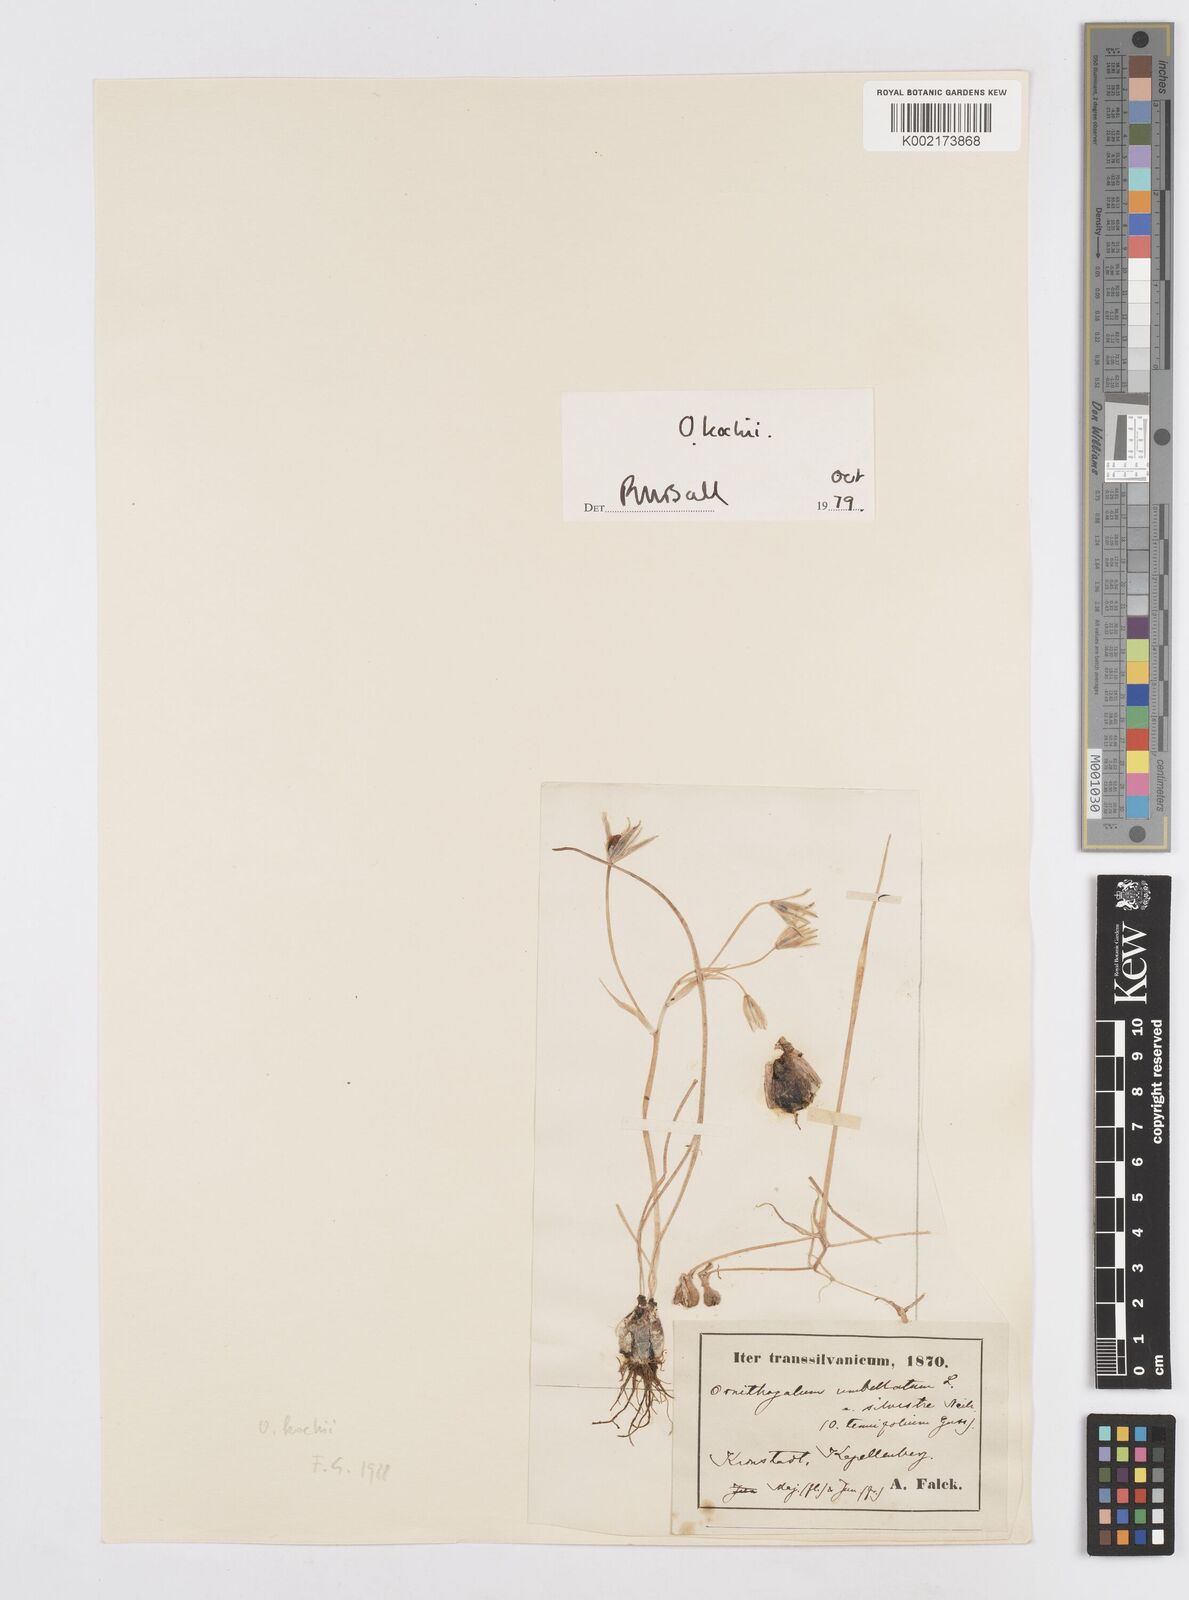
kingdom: Plantae
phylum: Tracheophyta
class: Liliopsida
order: Asparagales
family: Asparagaceae
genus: Ornithogalum
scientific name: Ornithogalum orthophyllum
